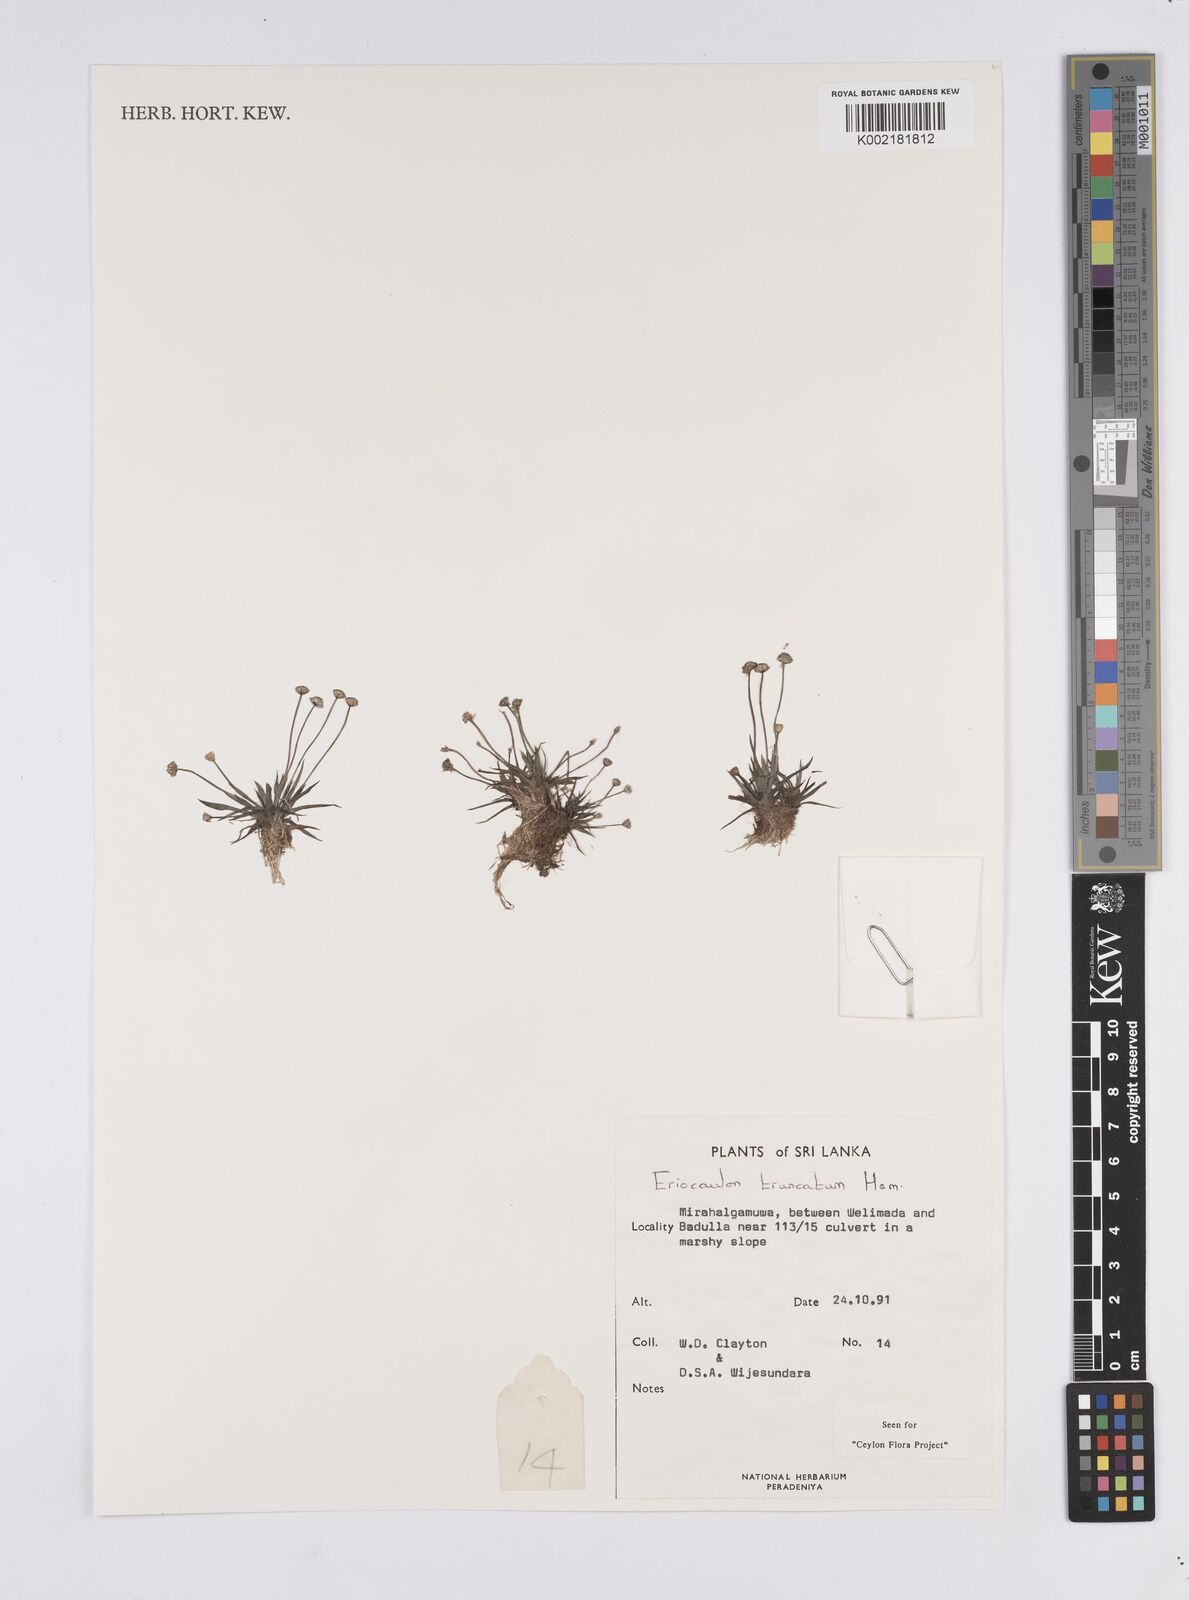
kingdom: Plantae
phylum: Tracheophyta
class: Liliopsida
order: Poales
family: Eriocaulaceae
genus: Eriocaulon
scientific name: Eriocaulon truncatum
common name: Short pipe-wort
